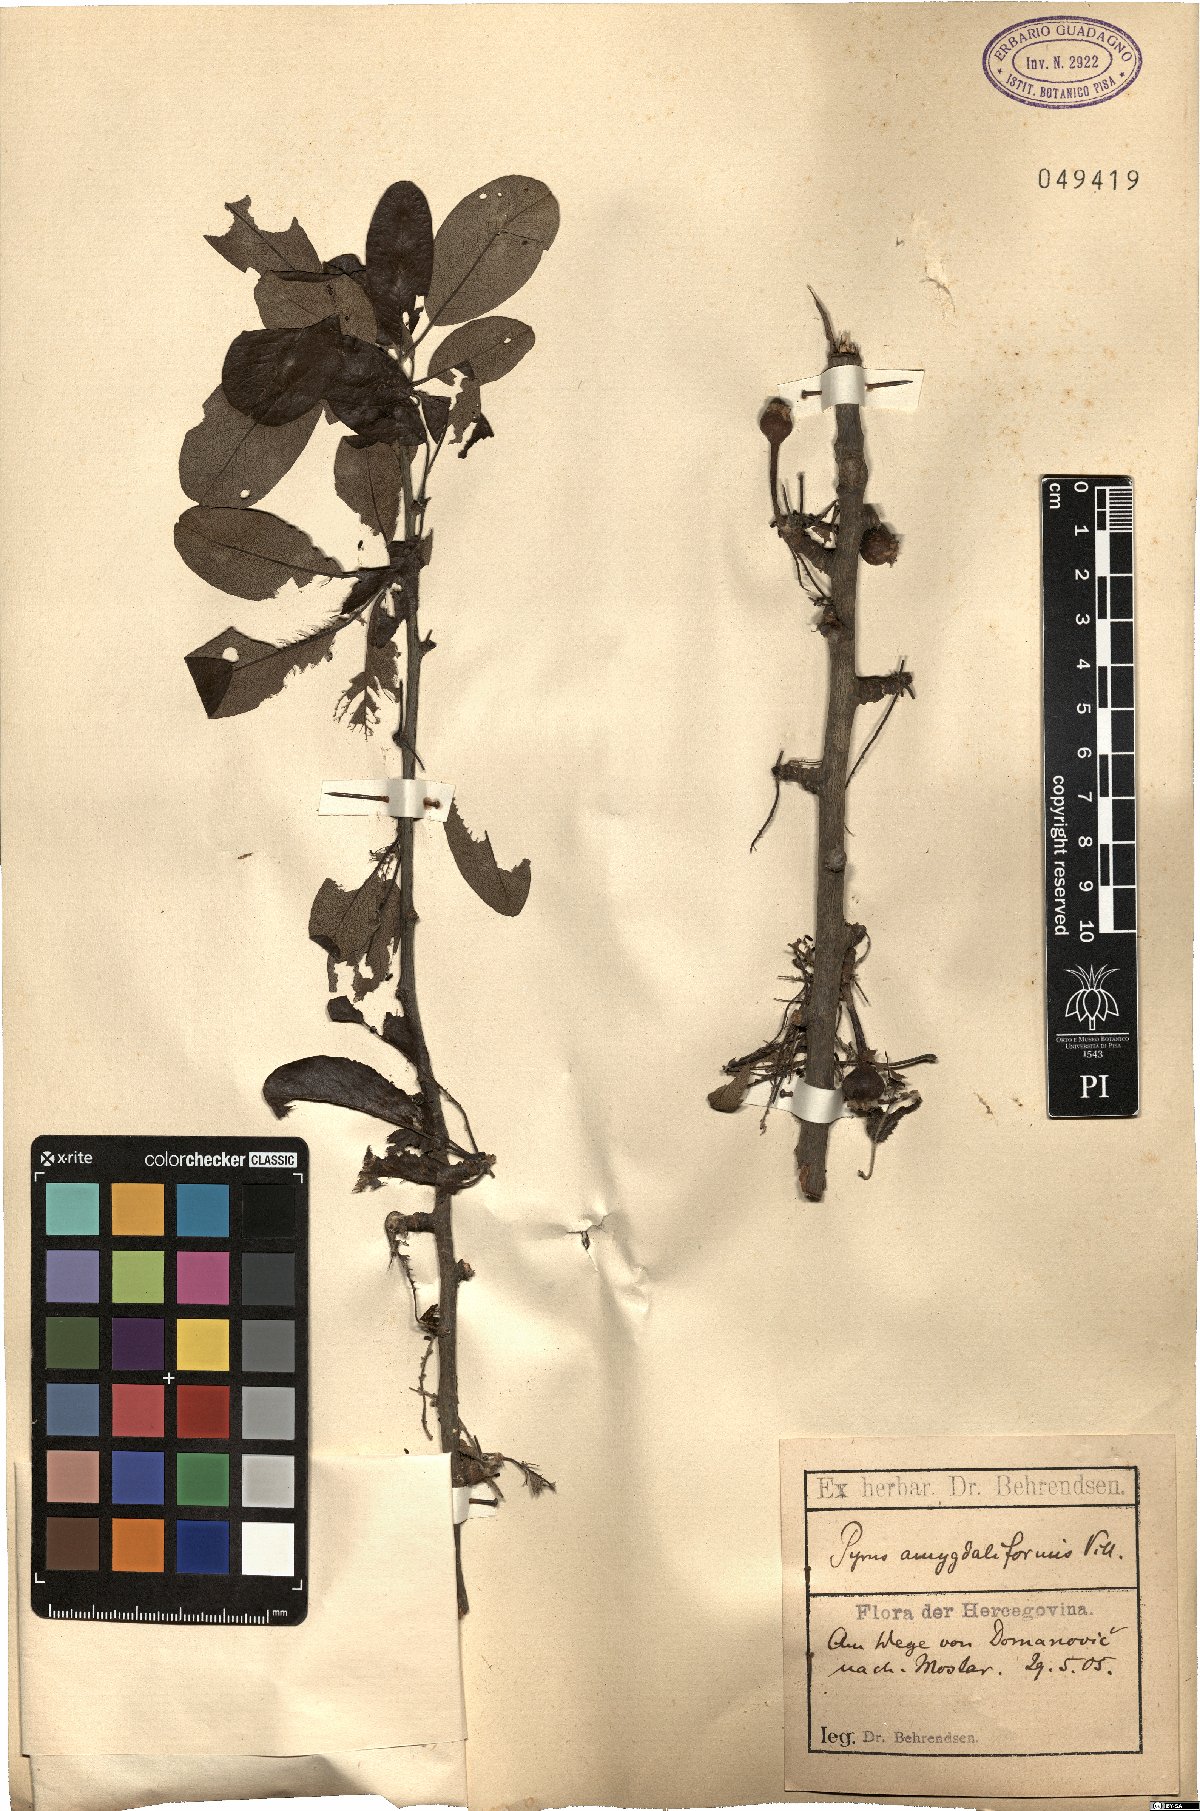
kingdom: Plantae
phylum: Tracheophyta
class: Magnoliopsida
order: Rosales
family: Rosaceae
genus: Pyrus
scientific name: Pyrus spinosa
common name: Almond-leaf pear
